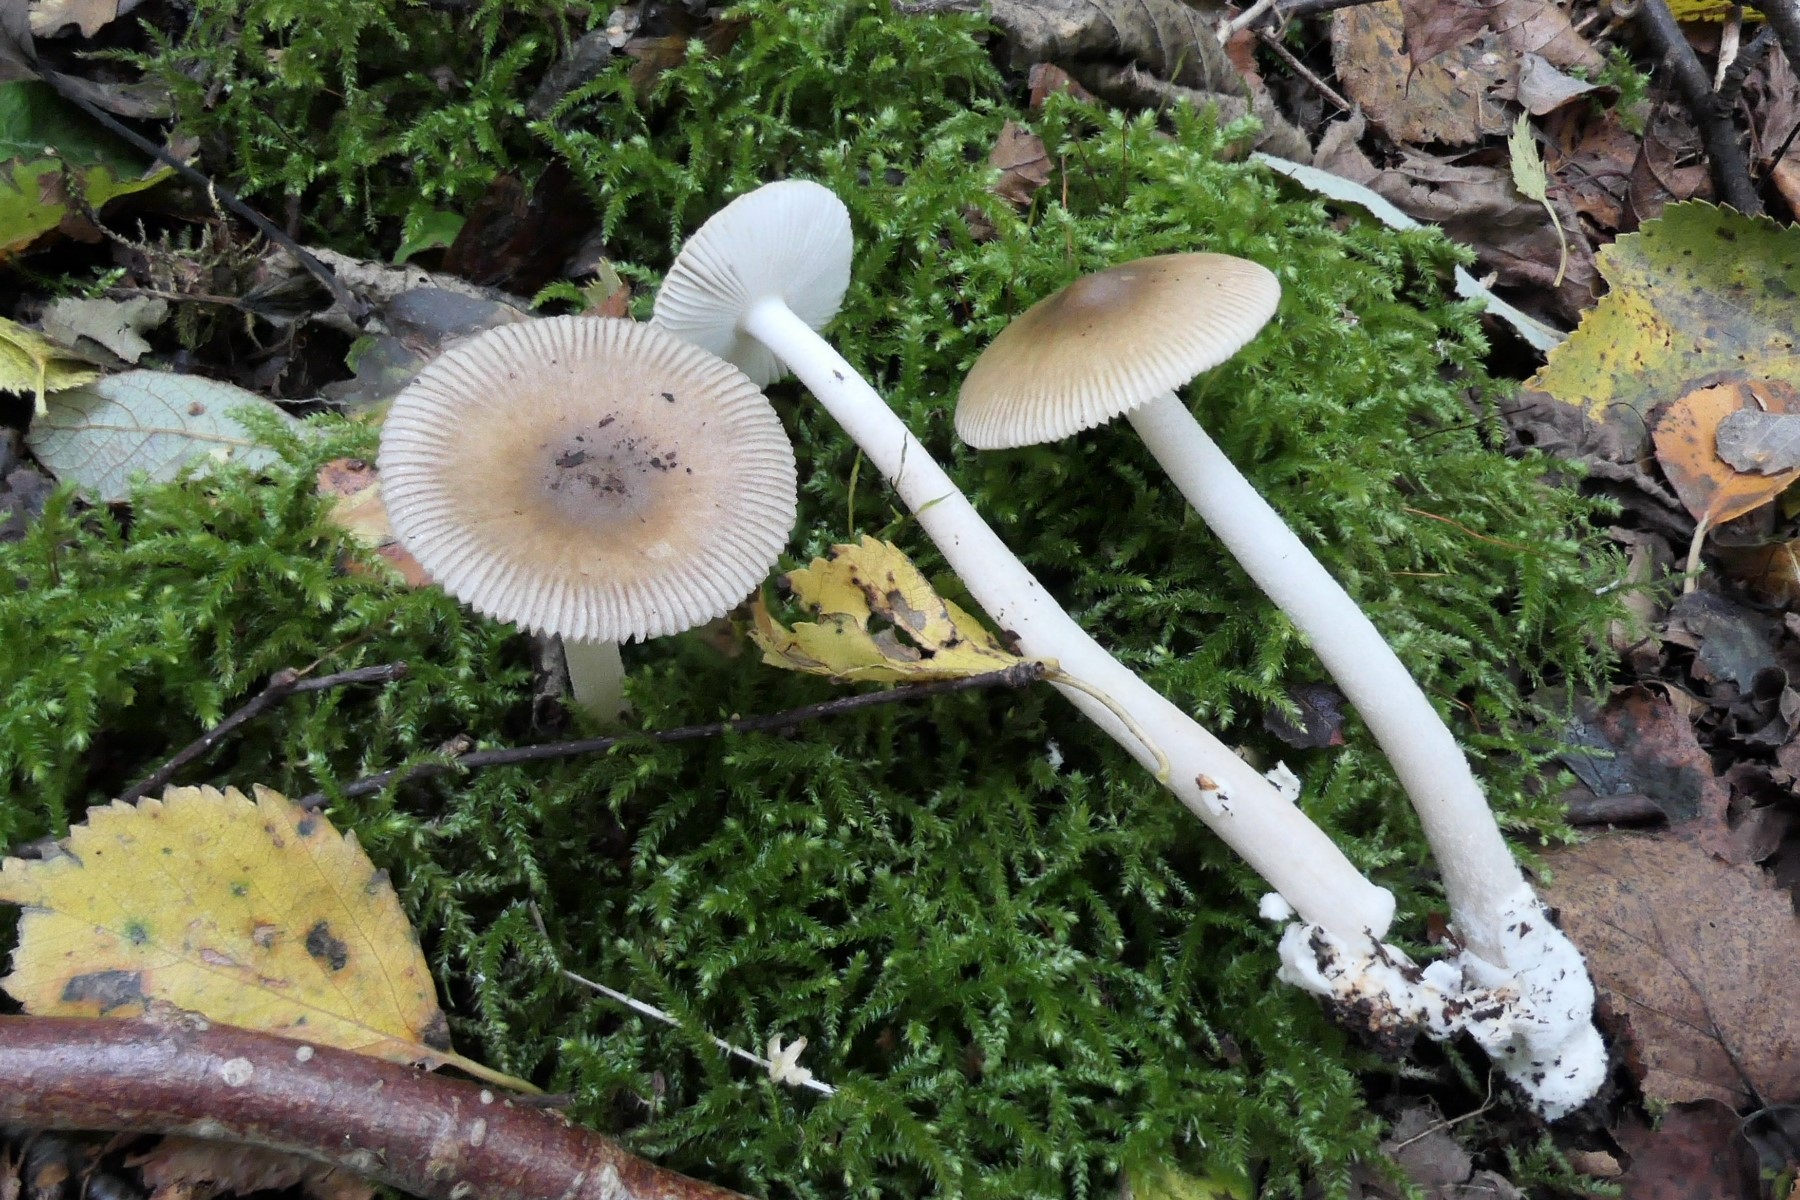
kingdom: Fungi
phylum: Basidiomycota
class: Agaricomycetes
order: Agaricales
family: Amanitaceae
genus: Amanita
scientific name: Amanita olivaceogrisea
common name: olivengrå kam-fluesvamp
